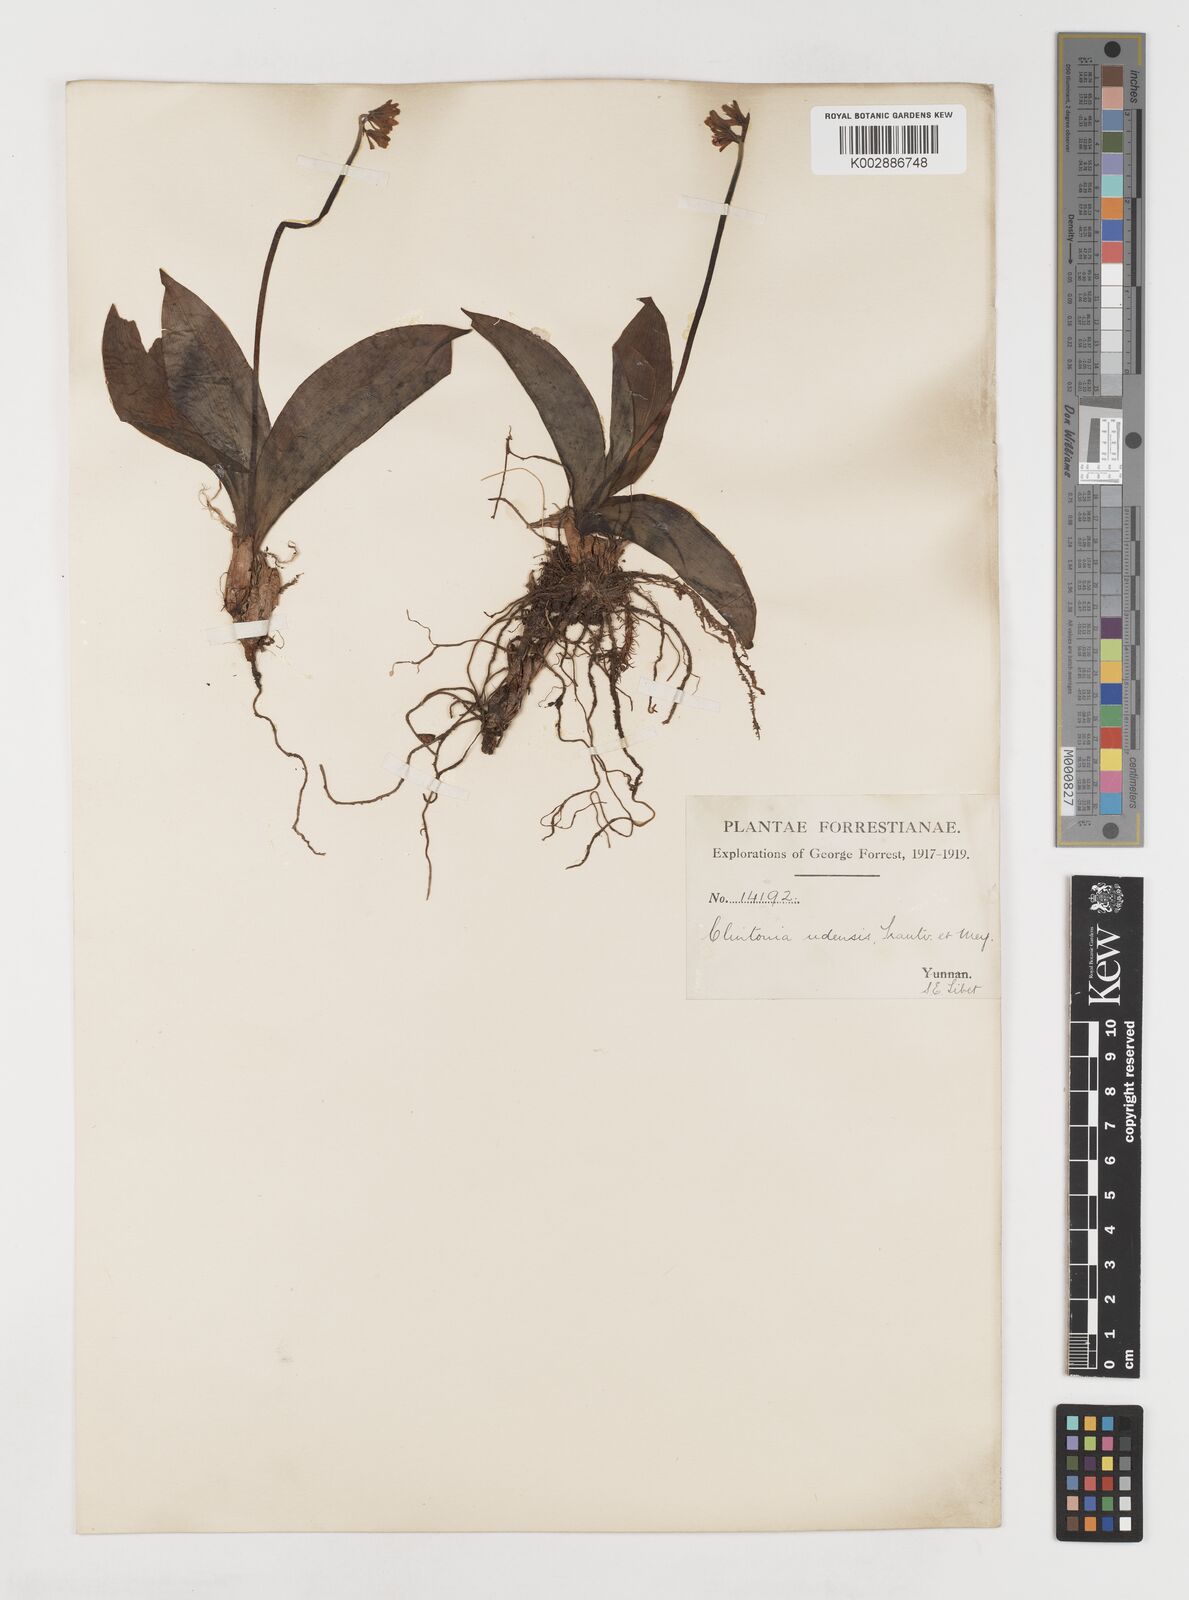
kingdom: Plantae
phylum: Tracheophyta
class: Liliopsida
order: Liliales
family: Liliaceae
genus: Clintonia
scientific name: Clintonia udensis
